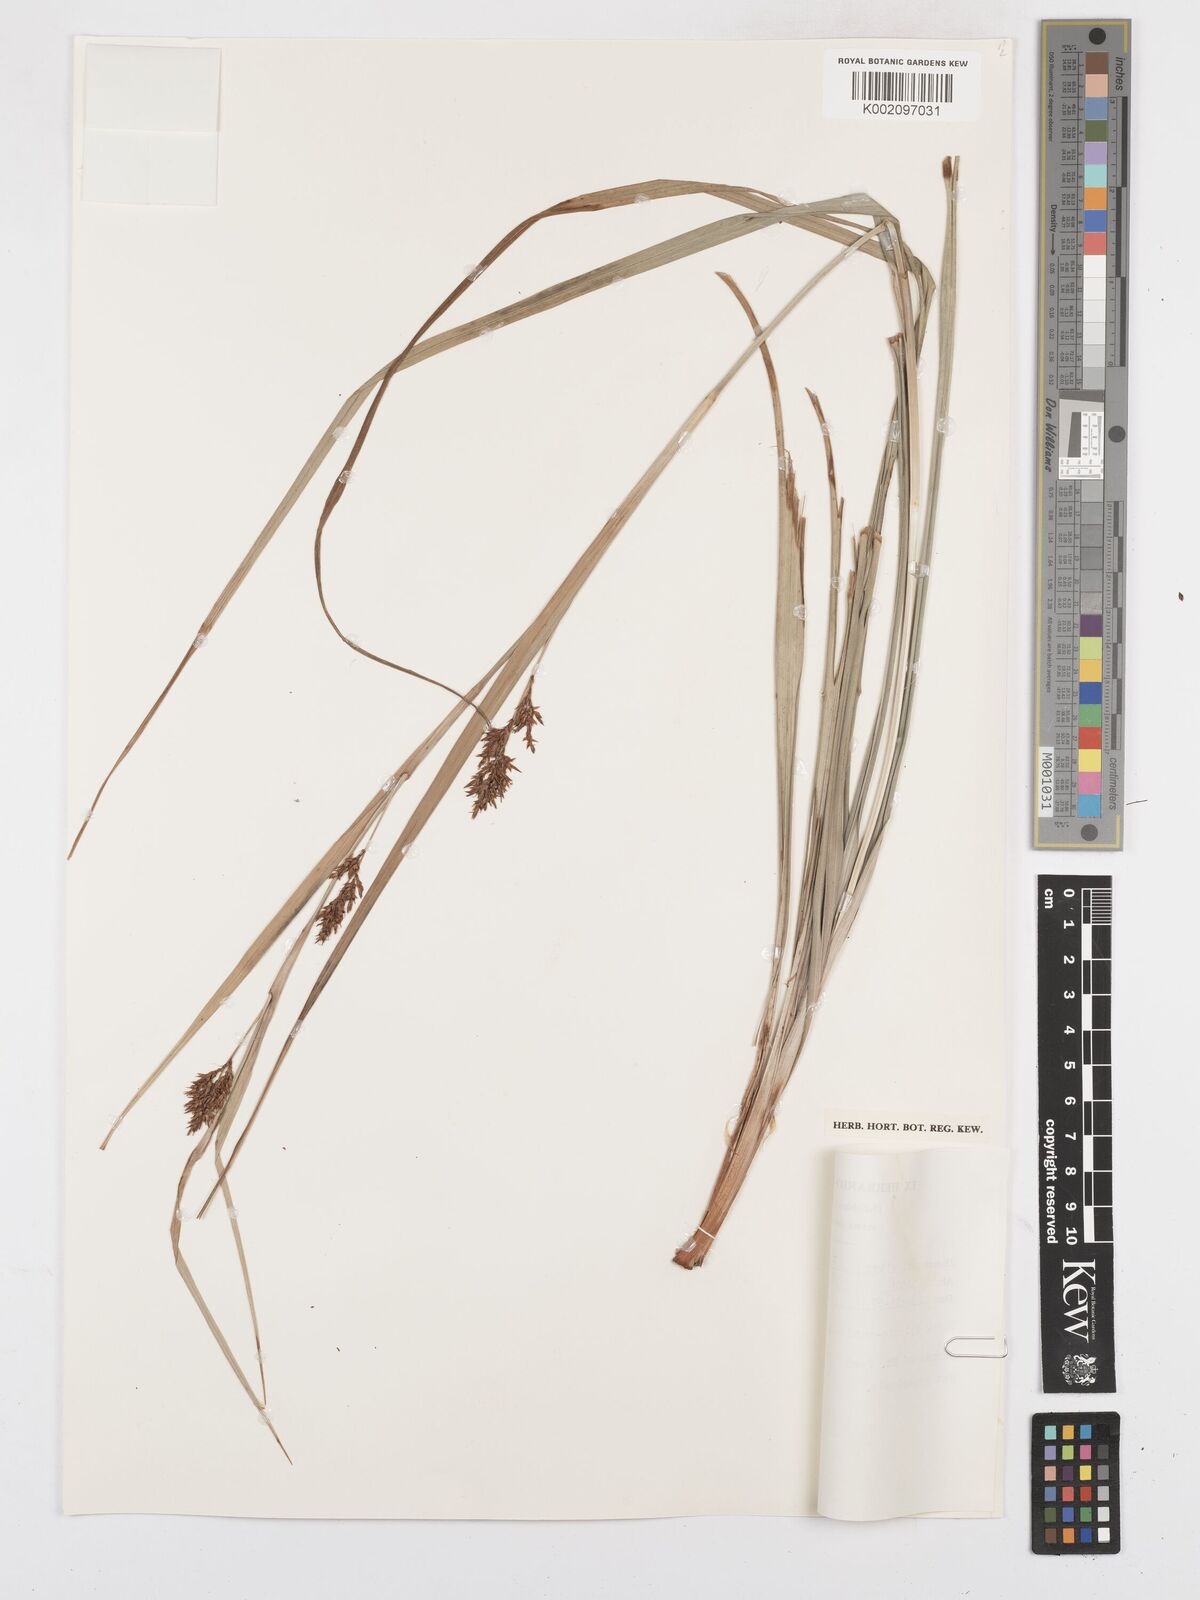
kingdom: Plantae
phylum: Tracheophyta
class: Liliopsida
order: Poales
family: Cyperaceae
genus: Carex
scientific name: Carex spicatopaniculata
